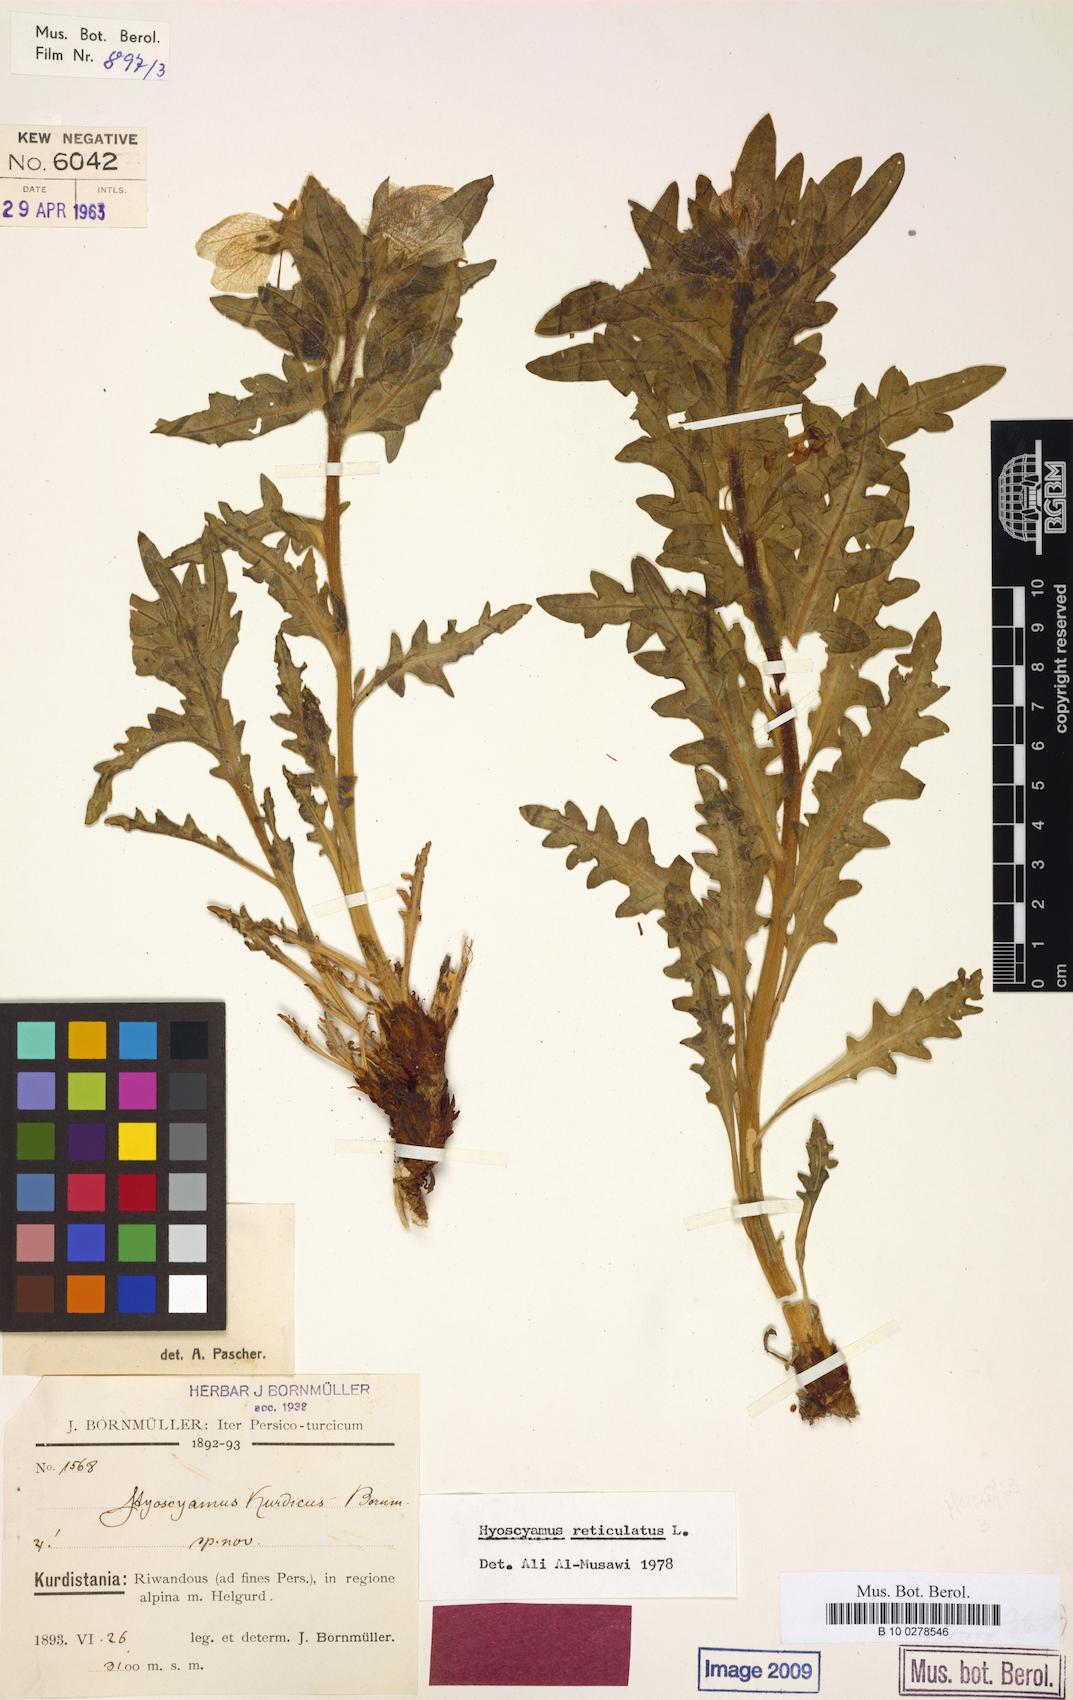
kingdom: Plantae
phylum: Tracheophyta
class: Magnoliopsida
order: Solanales
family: Solanaceae
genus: Hyoscyamus
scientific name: Hyoscyamus reticulatus
